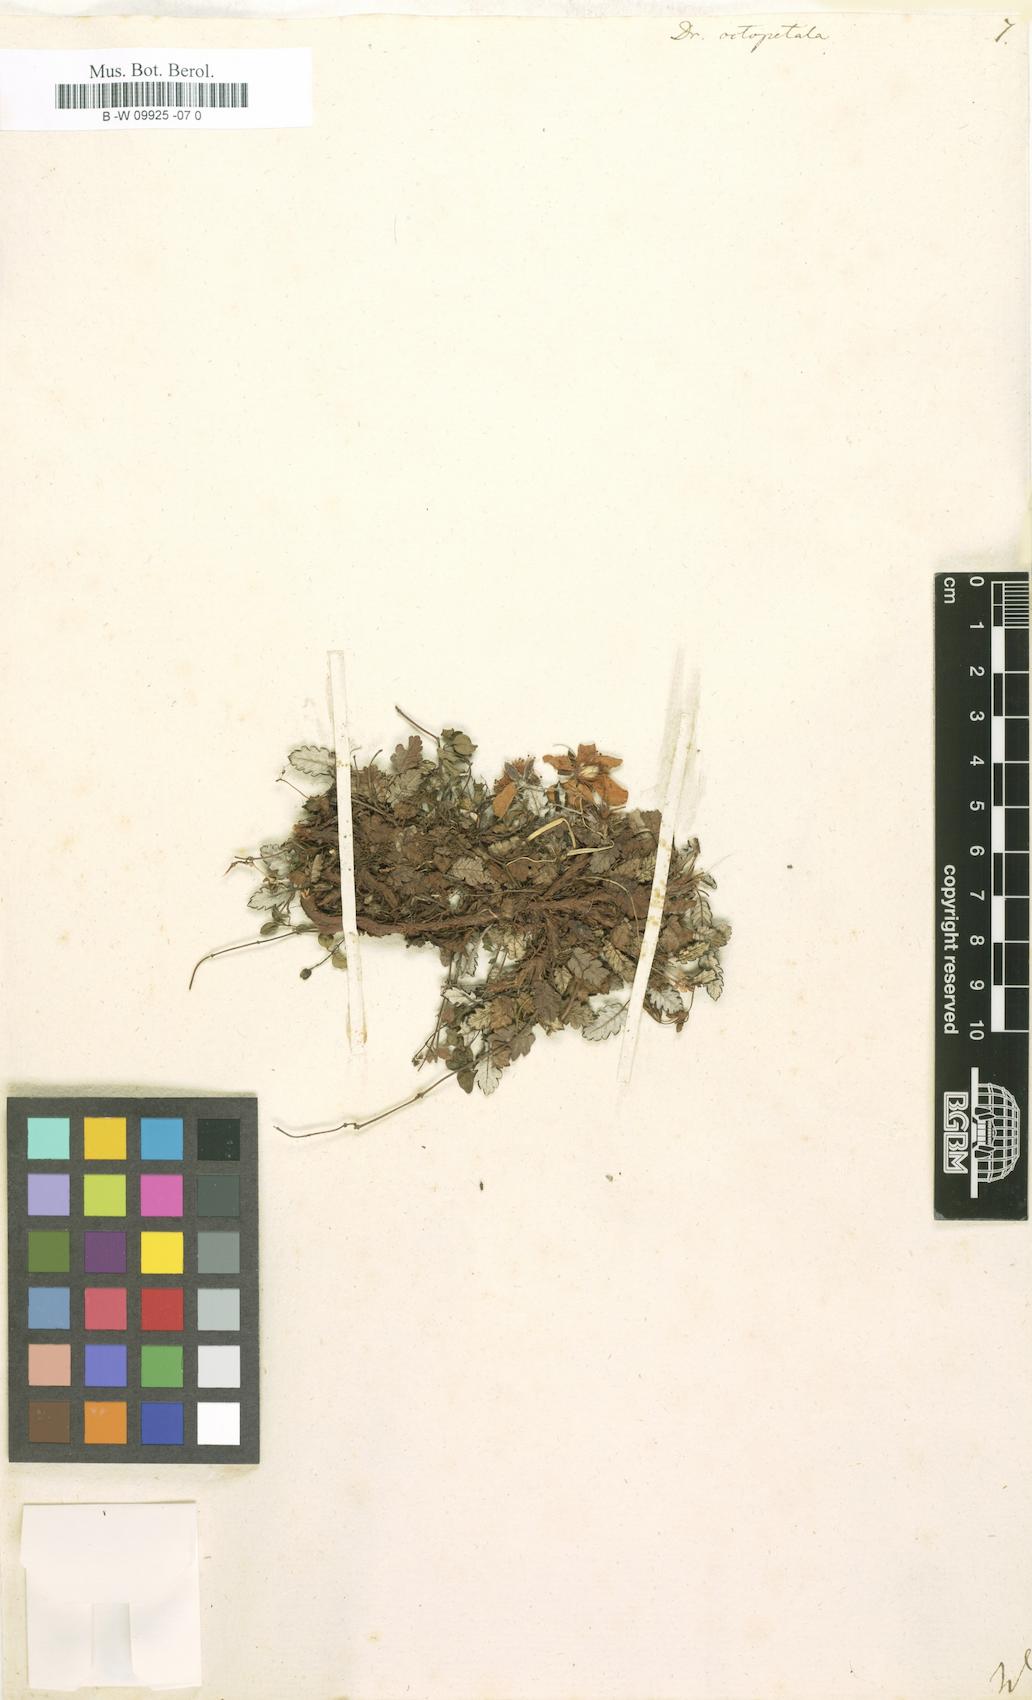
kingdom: Plantae
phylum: Tracheophyta
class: Magnoliopsida
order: Rosales
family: Rosaceae
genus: Dryas
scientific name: Dryas octopetala
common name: Eight-petal mountain-avens
